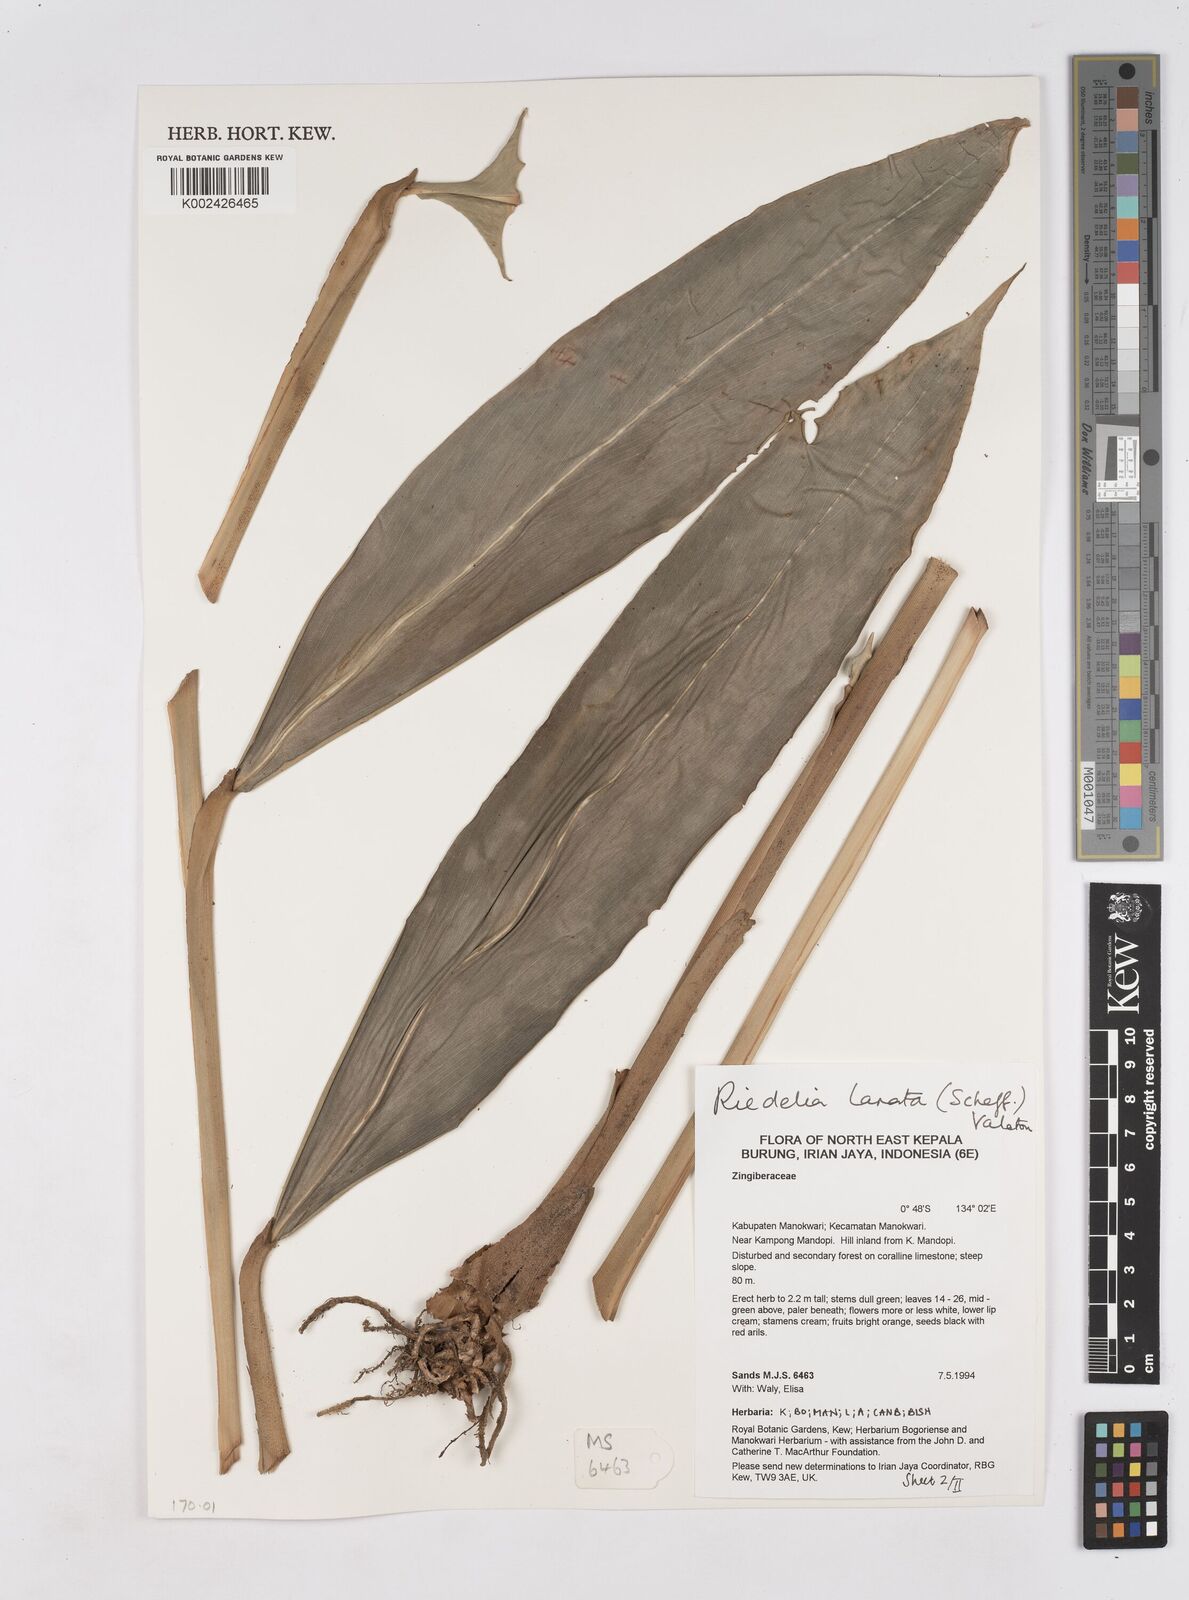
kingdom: Plantae
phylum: Tracheophyta
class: Liliopsida
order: Zingiberales
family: Zingiberaceae
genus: Riedelia
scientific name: Riedelia lanata
